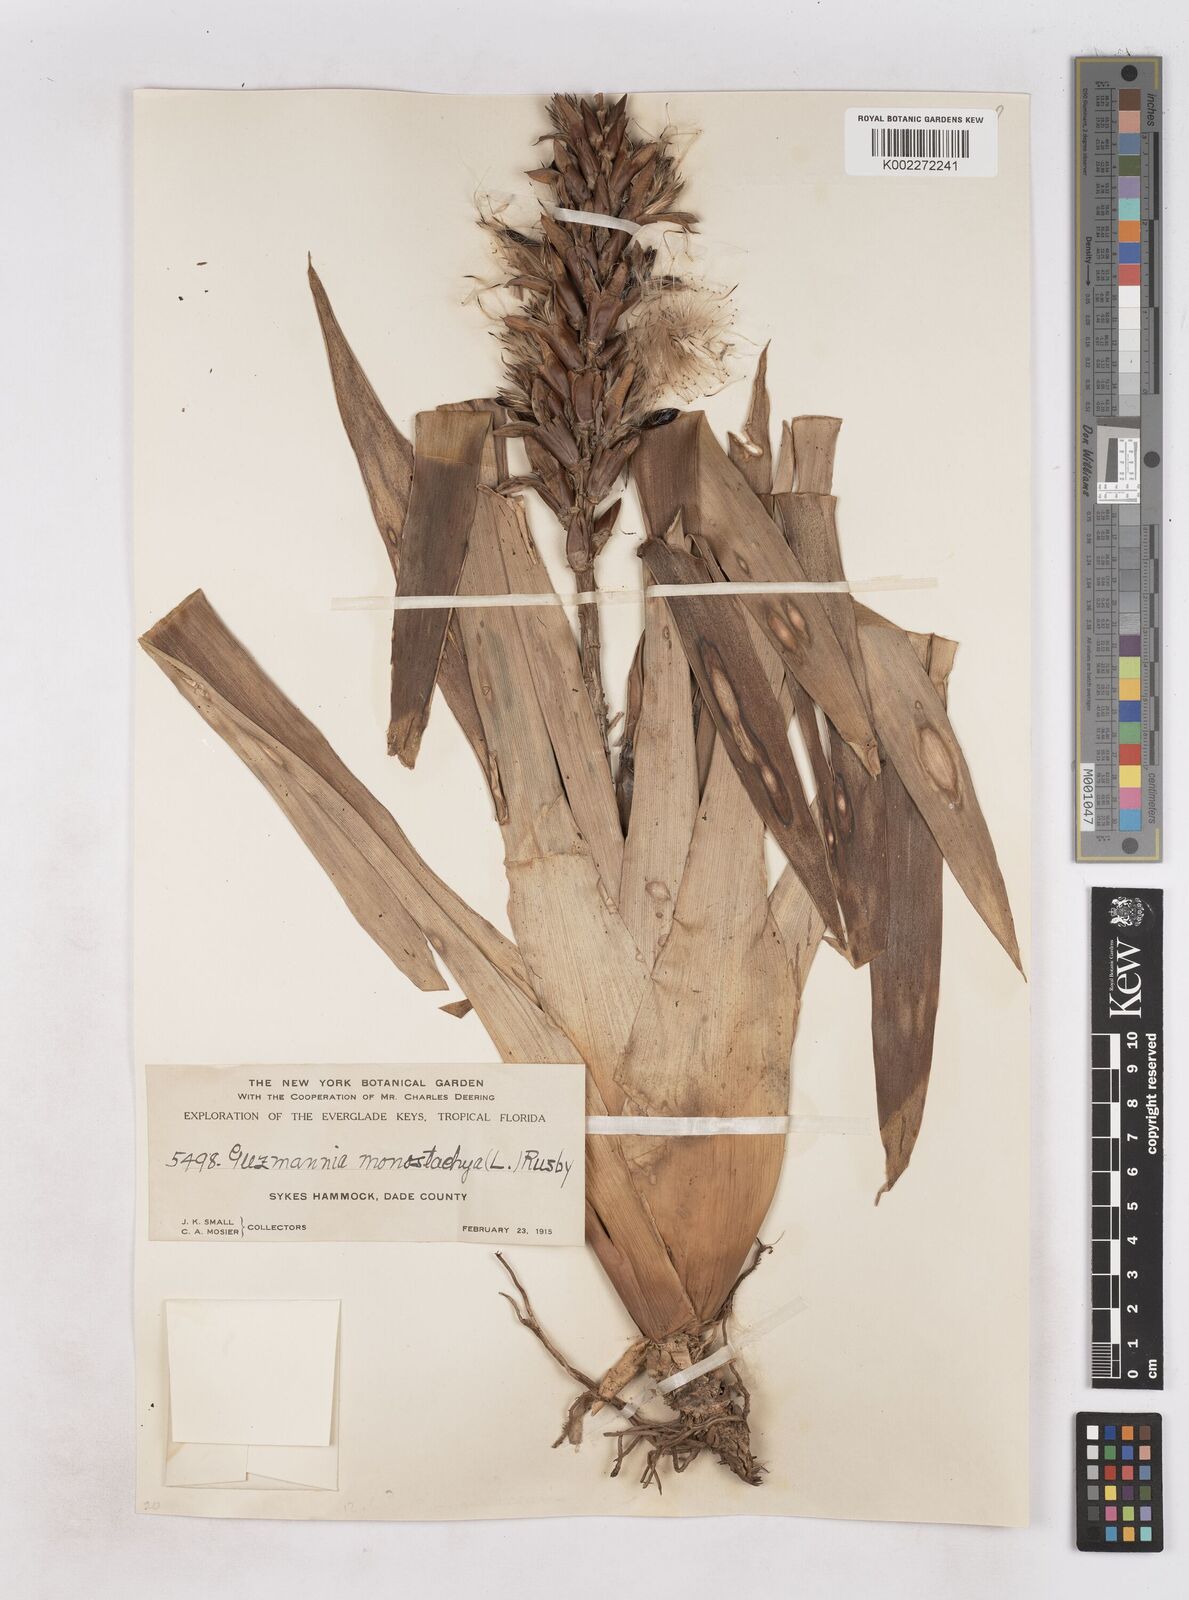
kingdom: Plantae
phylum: Tracheophyta
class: Liliopsida
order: Poales
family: Bromeliaceae
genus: Guzmania
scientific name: Guzmania monostachia
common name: West indian tufted airplant
